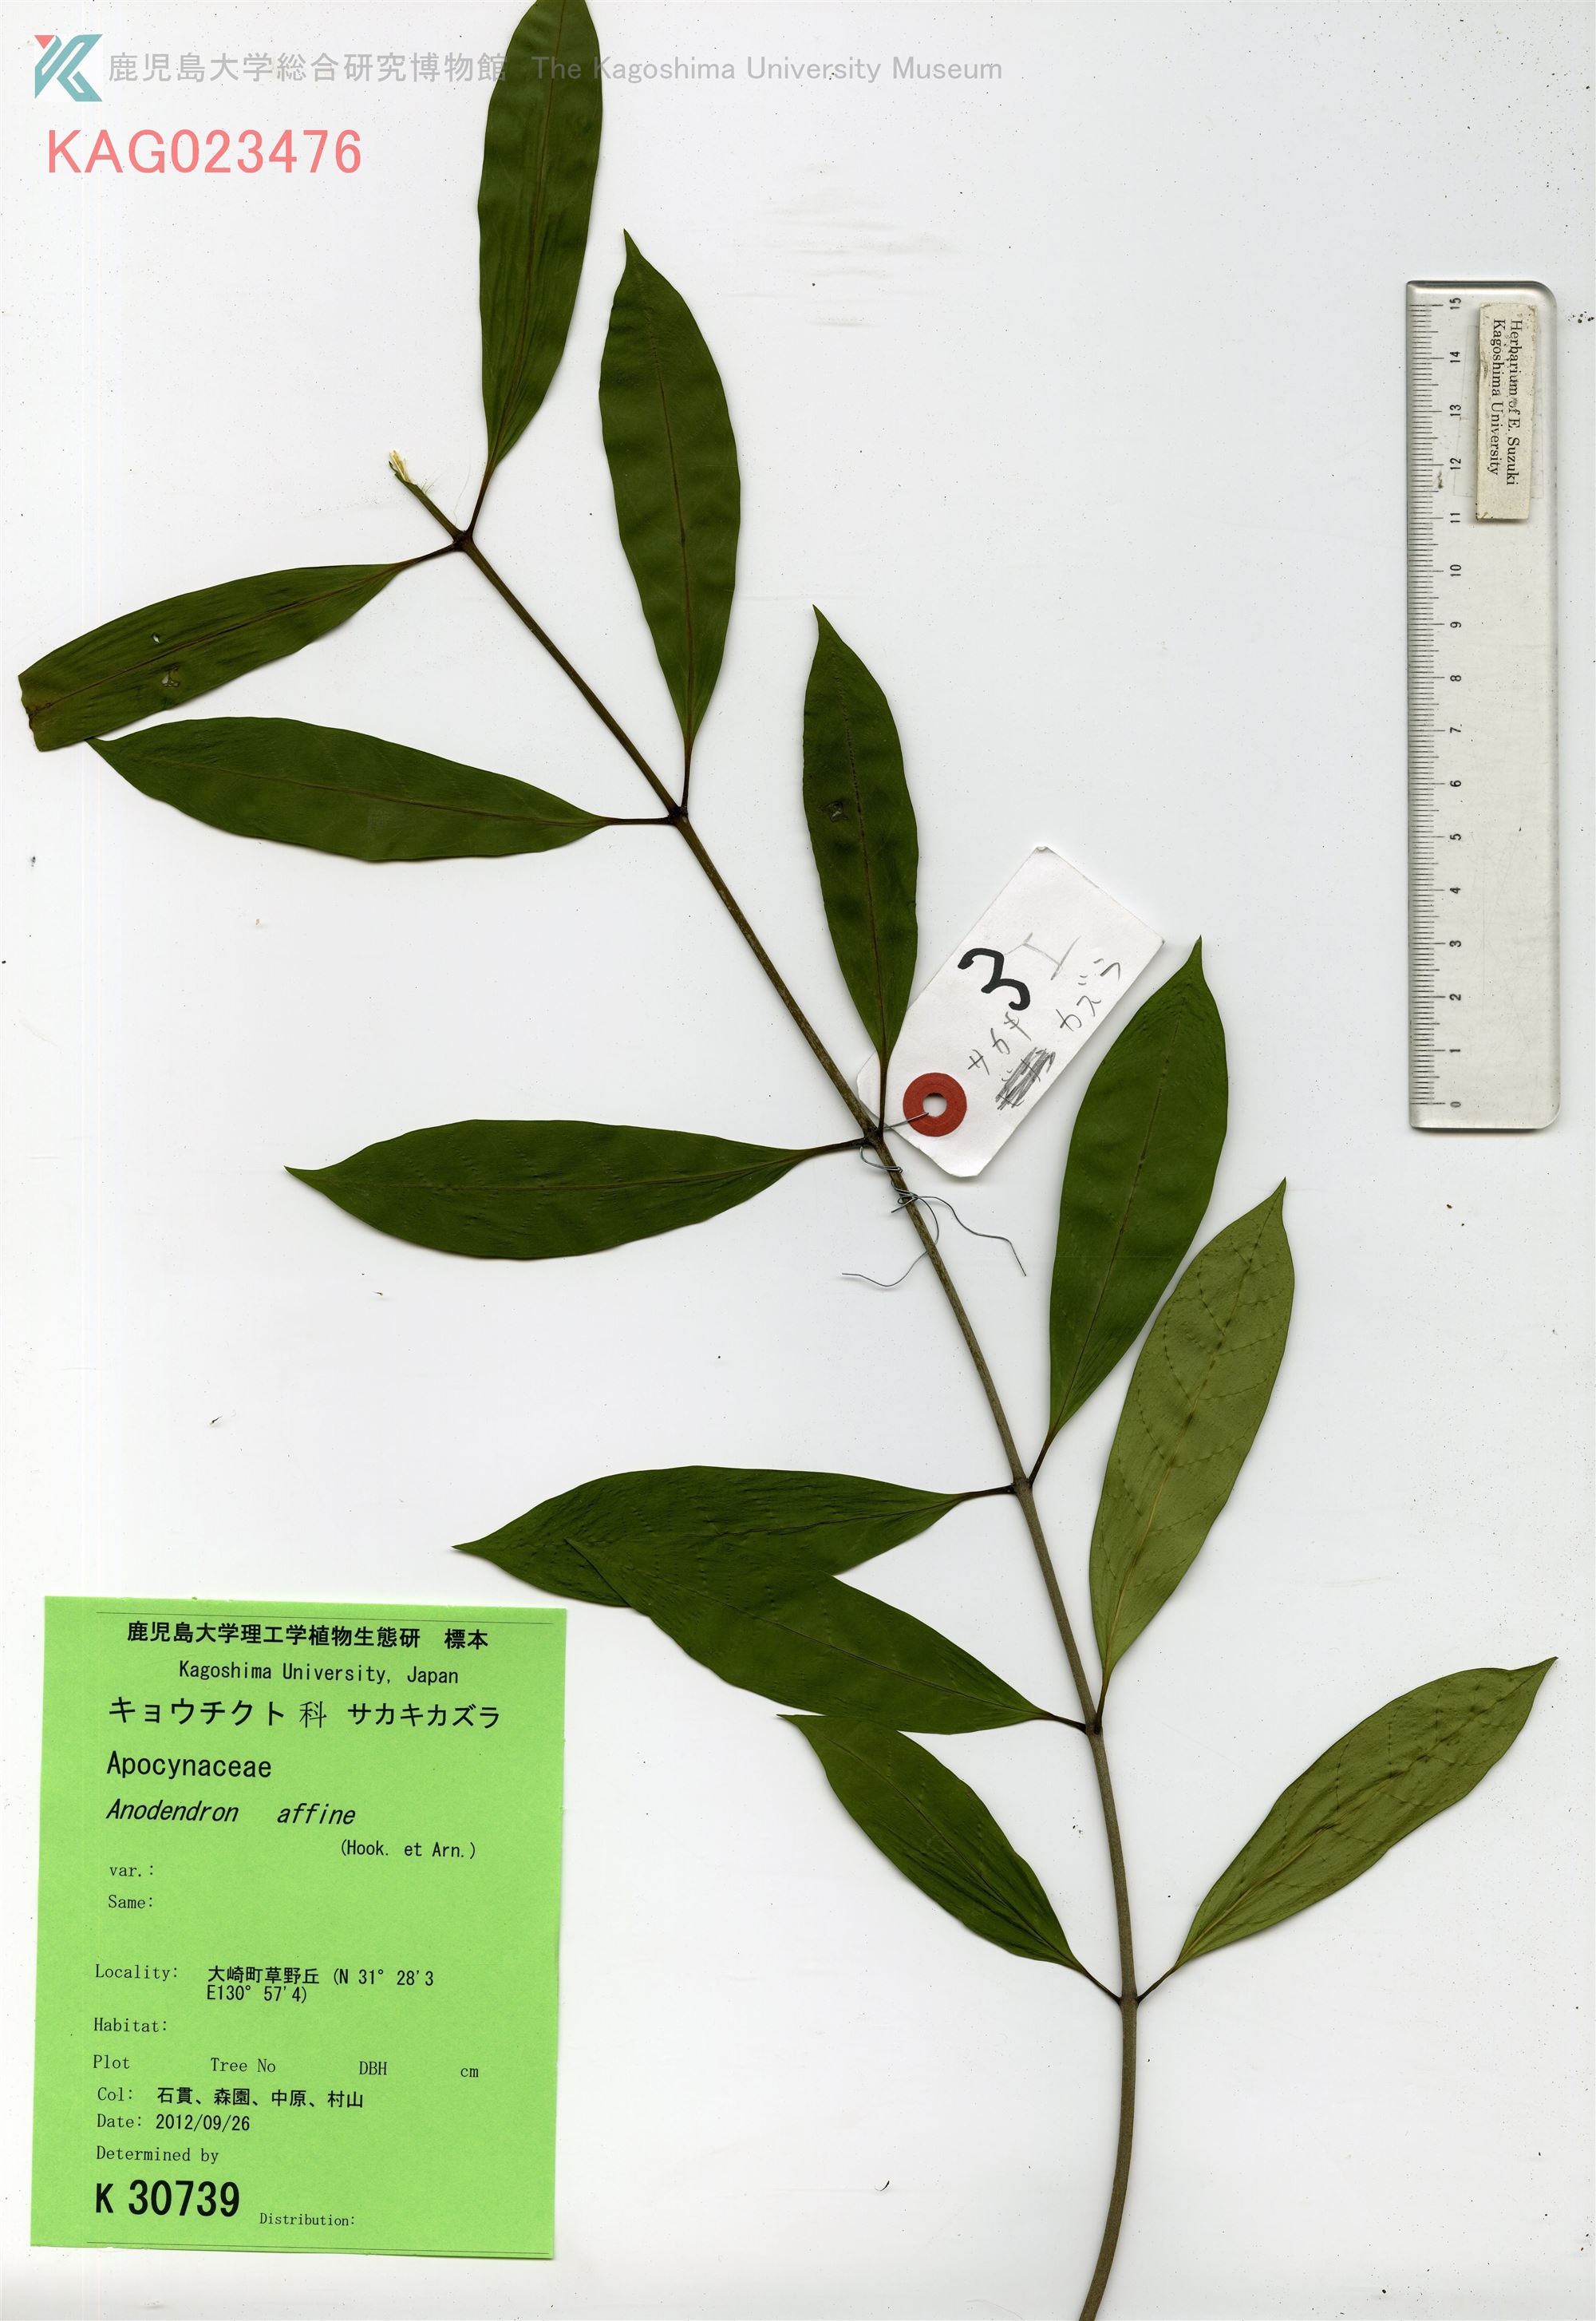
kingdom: Plantae
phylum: Tracheophyta
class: Magnoliopsida
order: Gentianales
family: Apocynaceae
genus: Anodendron
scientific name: Anodendron affine
